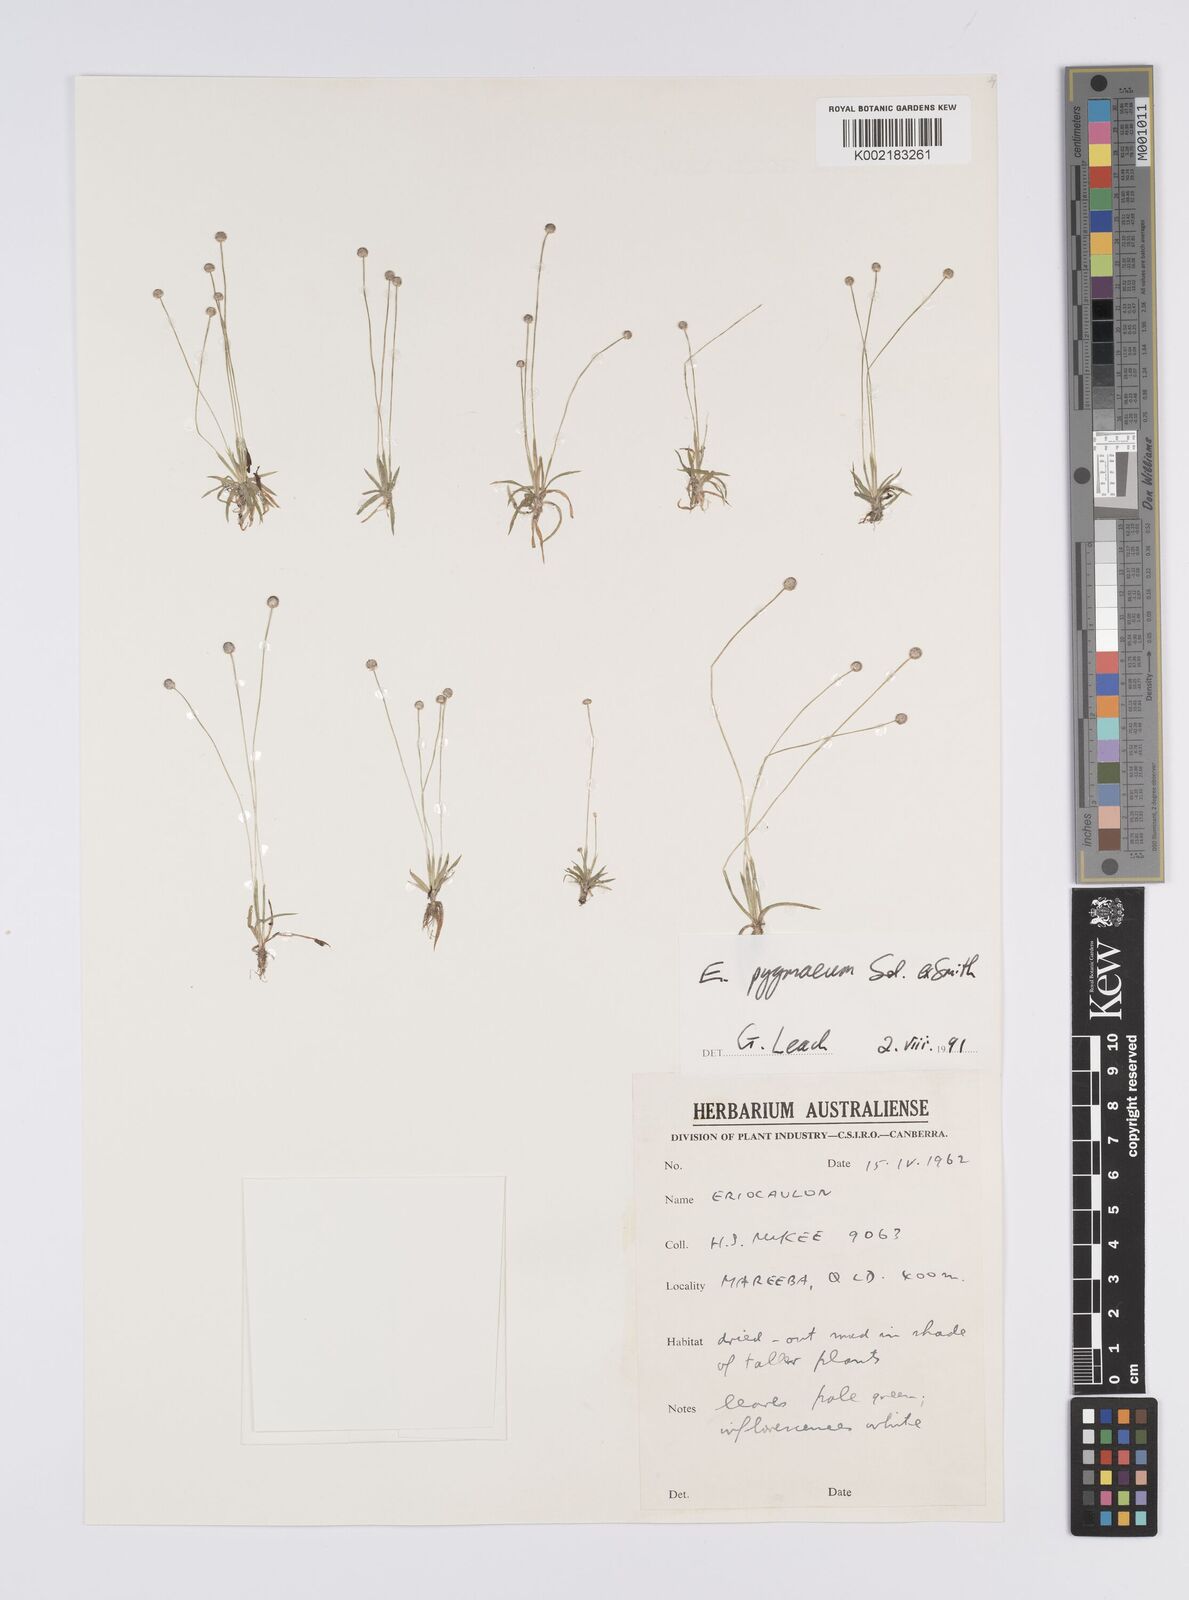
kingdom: Plantae
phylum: Tracheophyta
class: Liliopsida
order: Poales
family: Eriocaulaceae
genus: Paepalanthus
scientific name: Paepalanthus bifidus
